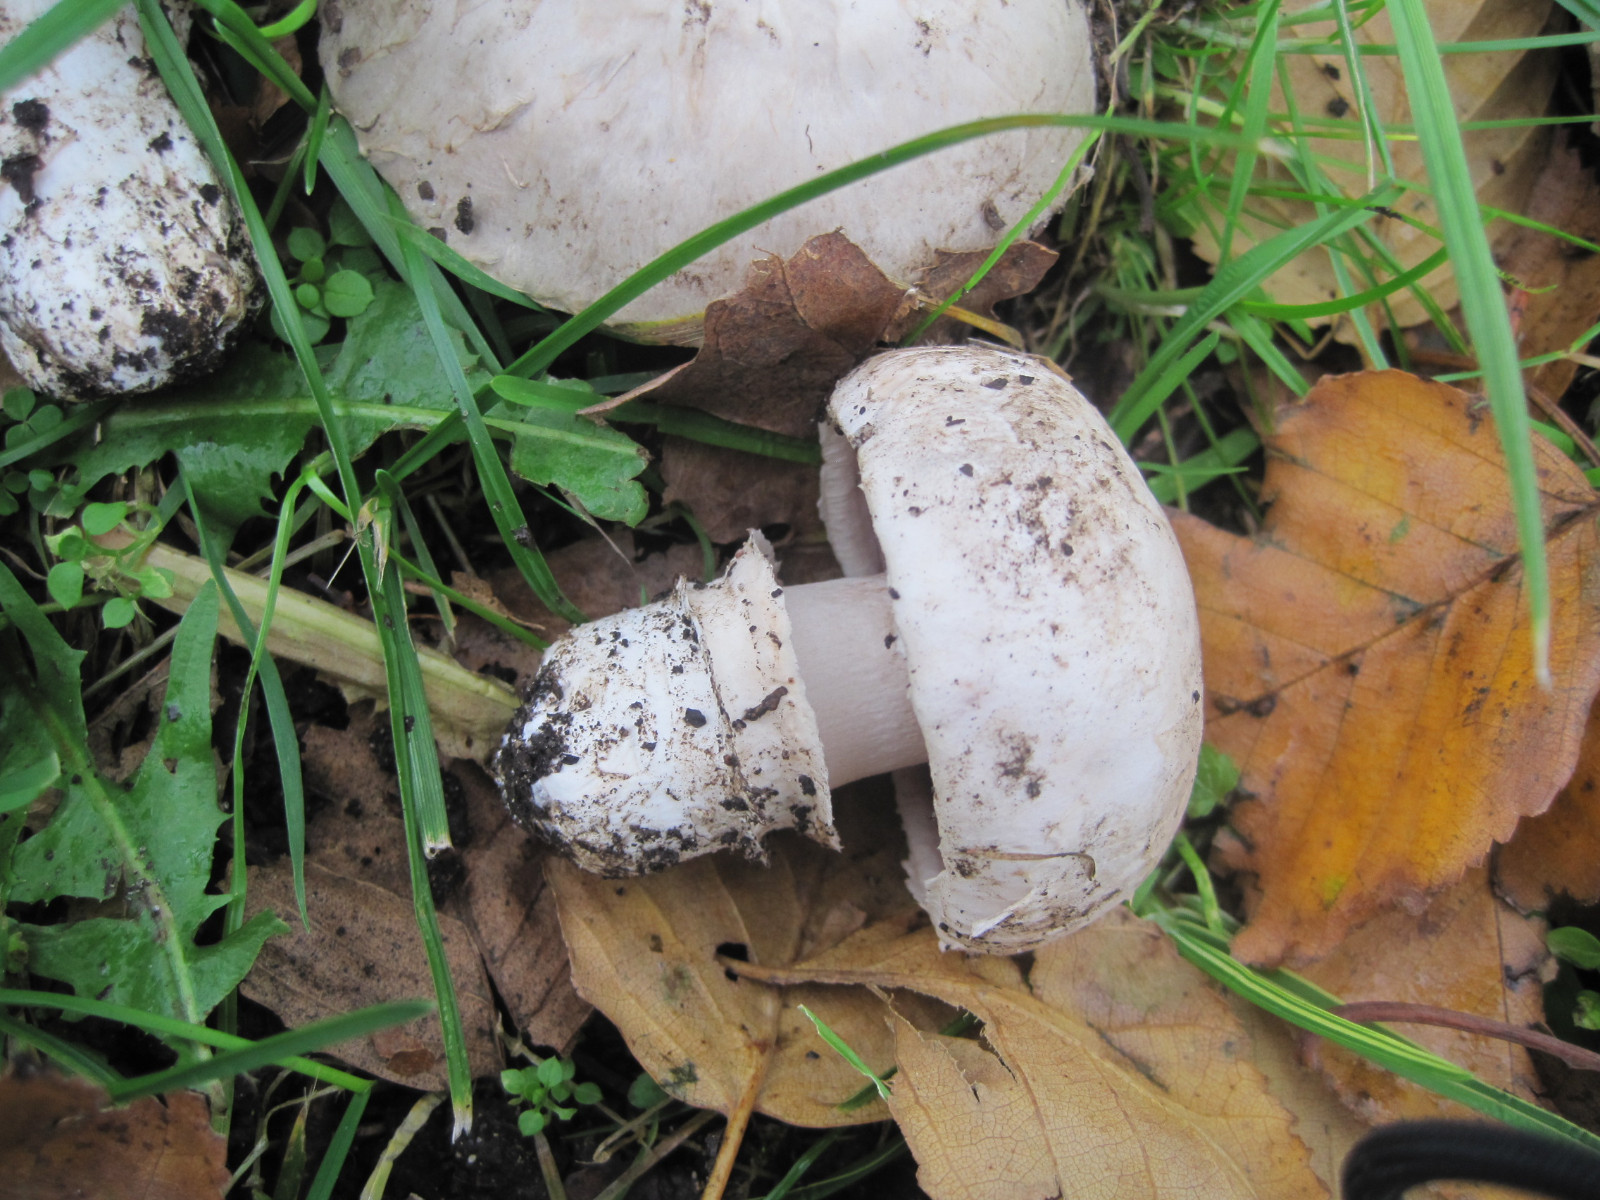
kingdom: Fungi
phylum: Basidiomycota
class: Agaricomycetes
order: Agaricales
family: Agaricaceae
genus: Agaricus
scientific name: Agaricus bitorquis
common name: vej-champignon
